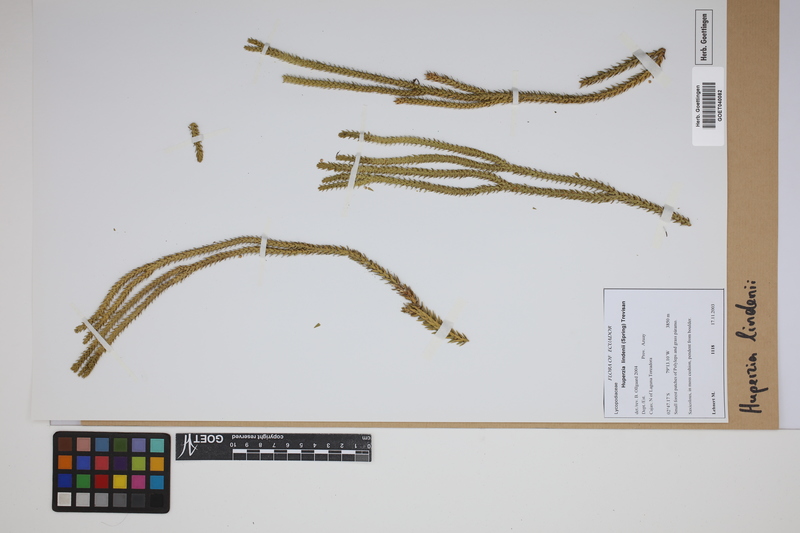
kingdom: Plantae
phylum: Tracheophyta
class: Lycopodiopsida
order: Lycopodiales
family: Lycopodiaceae
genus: Phlegmariurus
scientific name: Phlegmariurus lindenii
